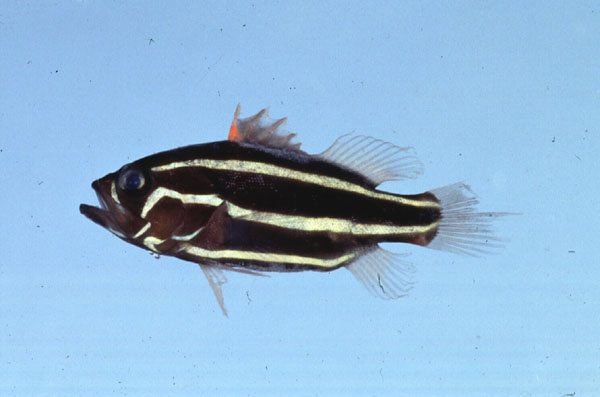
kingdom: Animalia
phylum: Chordata
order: Perciformes
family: Serranidae
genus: Grammistes
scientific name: Grammistes sexlineatus
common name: Sixline soapfish
